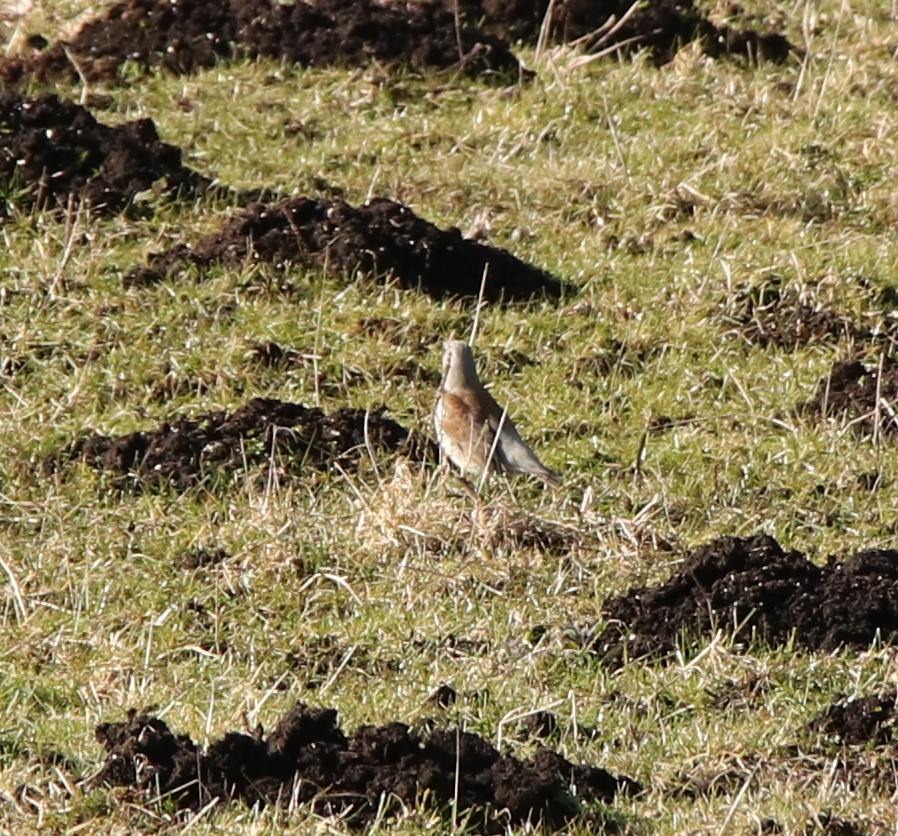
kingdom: Animalia
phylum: Chordata
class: Aves
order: Passeriformes
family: Turdidae
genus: Turdus
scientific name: Turdus pilaris
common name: Sjagger
